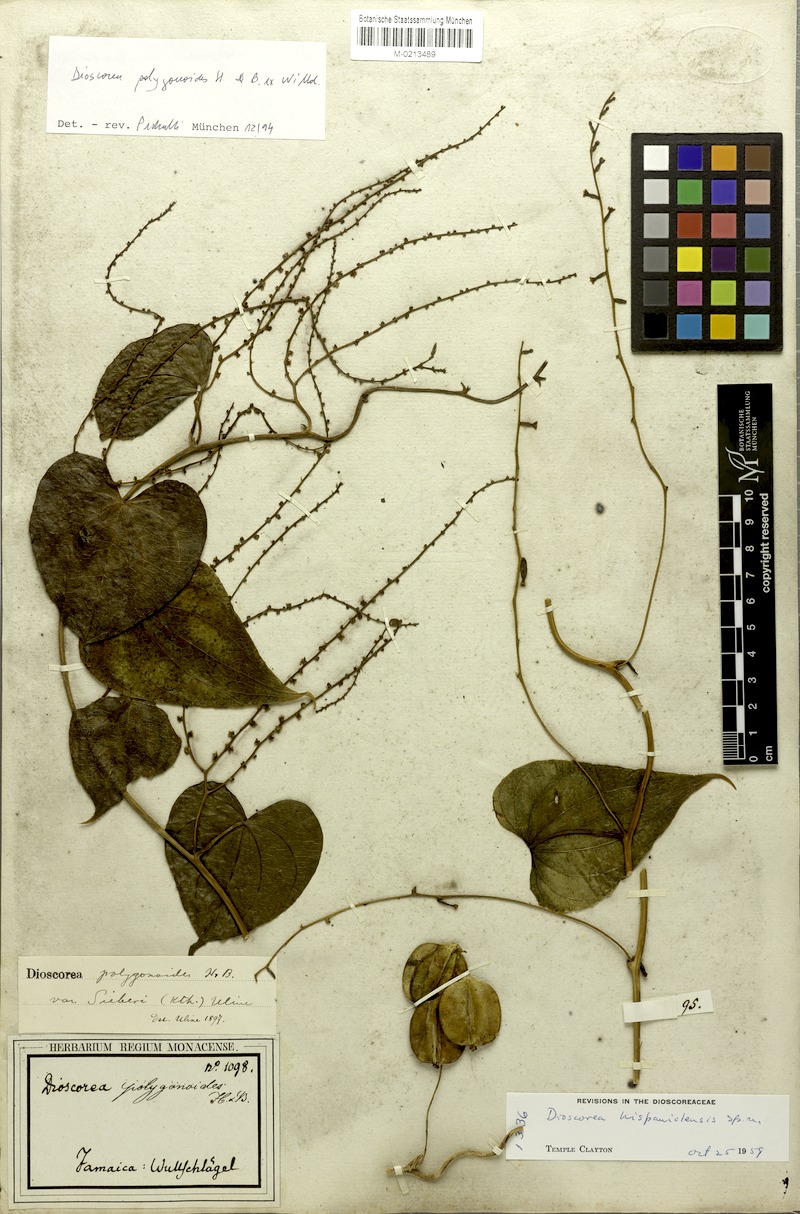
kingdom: Plantae
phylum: Tracheophyta
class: Liliopsida
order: Dioscoreales
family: Dioscoreaceae
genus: Dioscorea
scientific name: Dioscorea polygonoides
